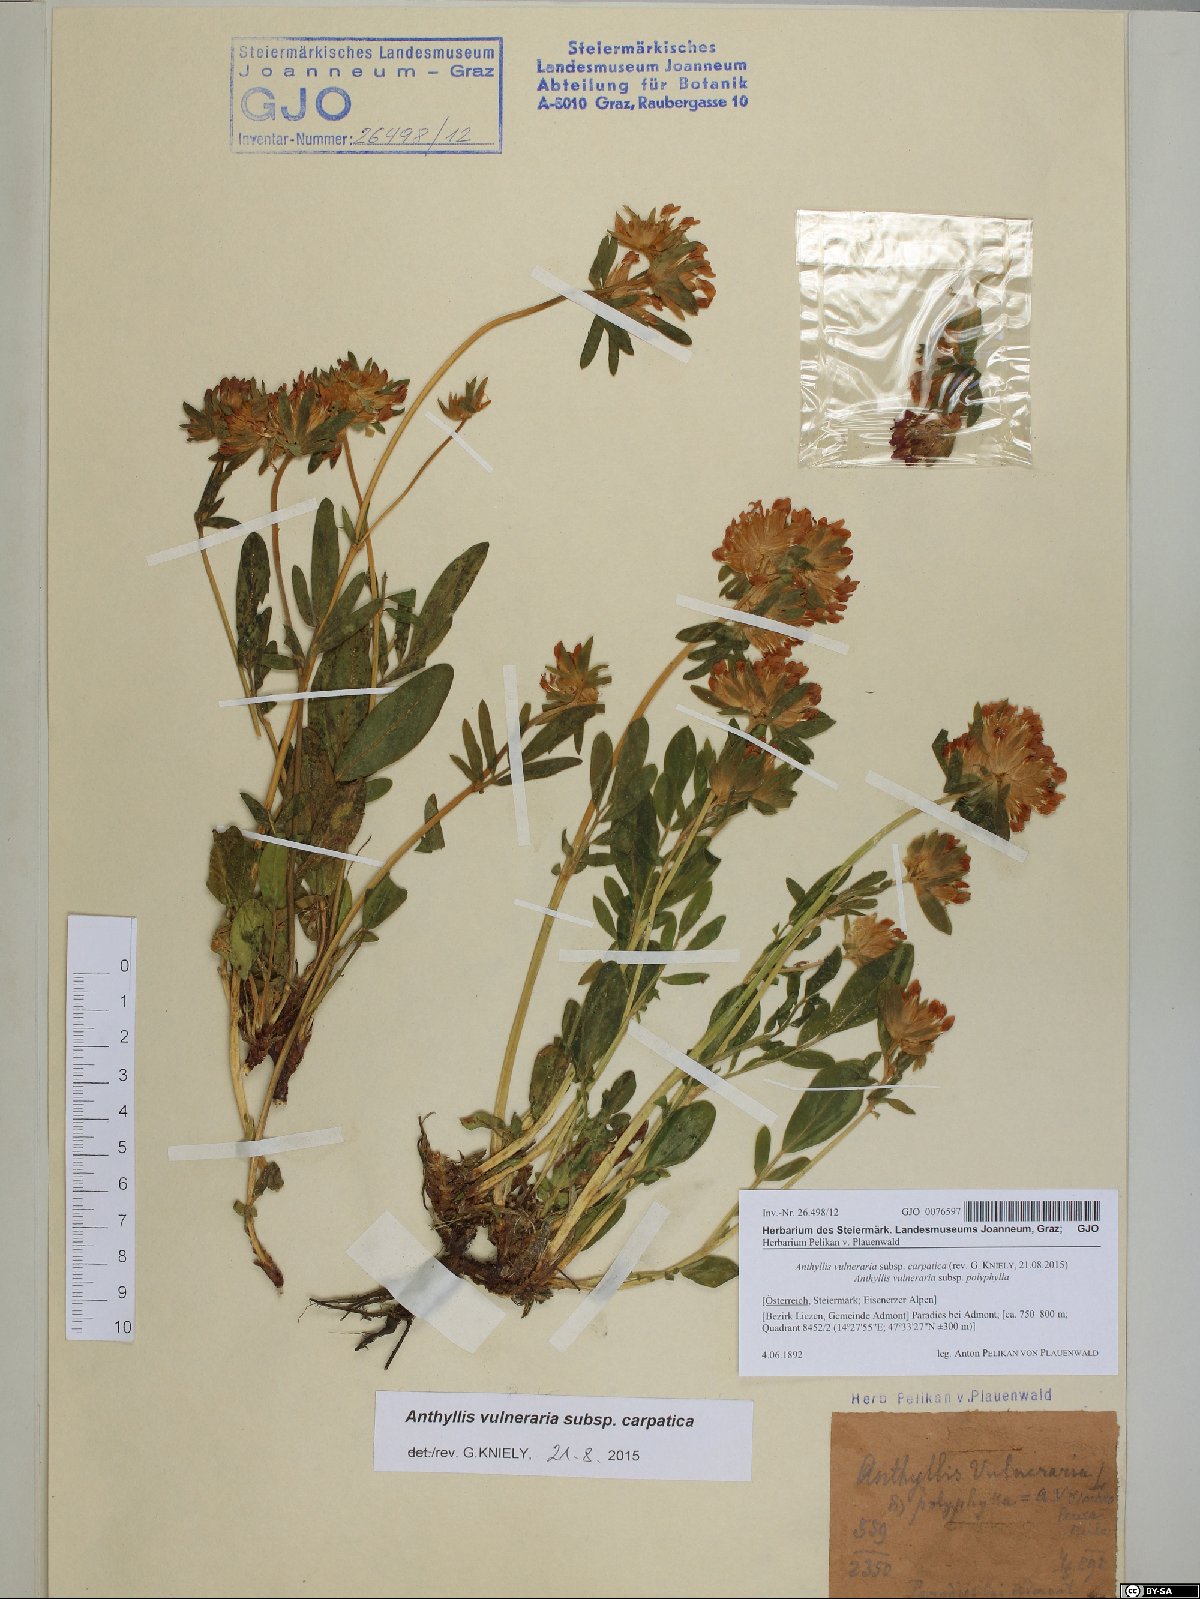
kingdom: Plantae
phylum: Tracheophyta
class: Magnoliopsida
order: Fabales
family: Fabaceae
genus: Anthyllis
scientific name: Anthyllis vulneraria
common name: Kidney vetch
